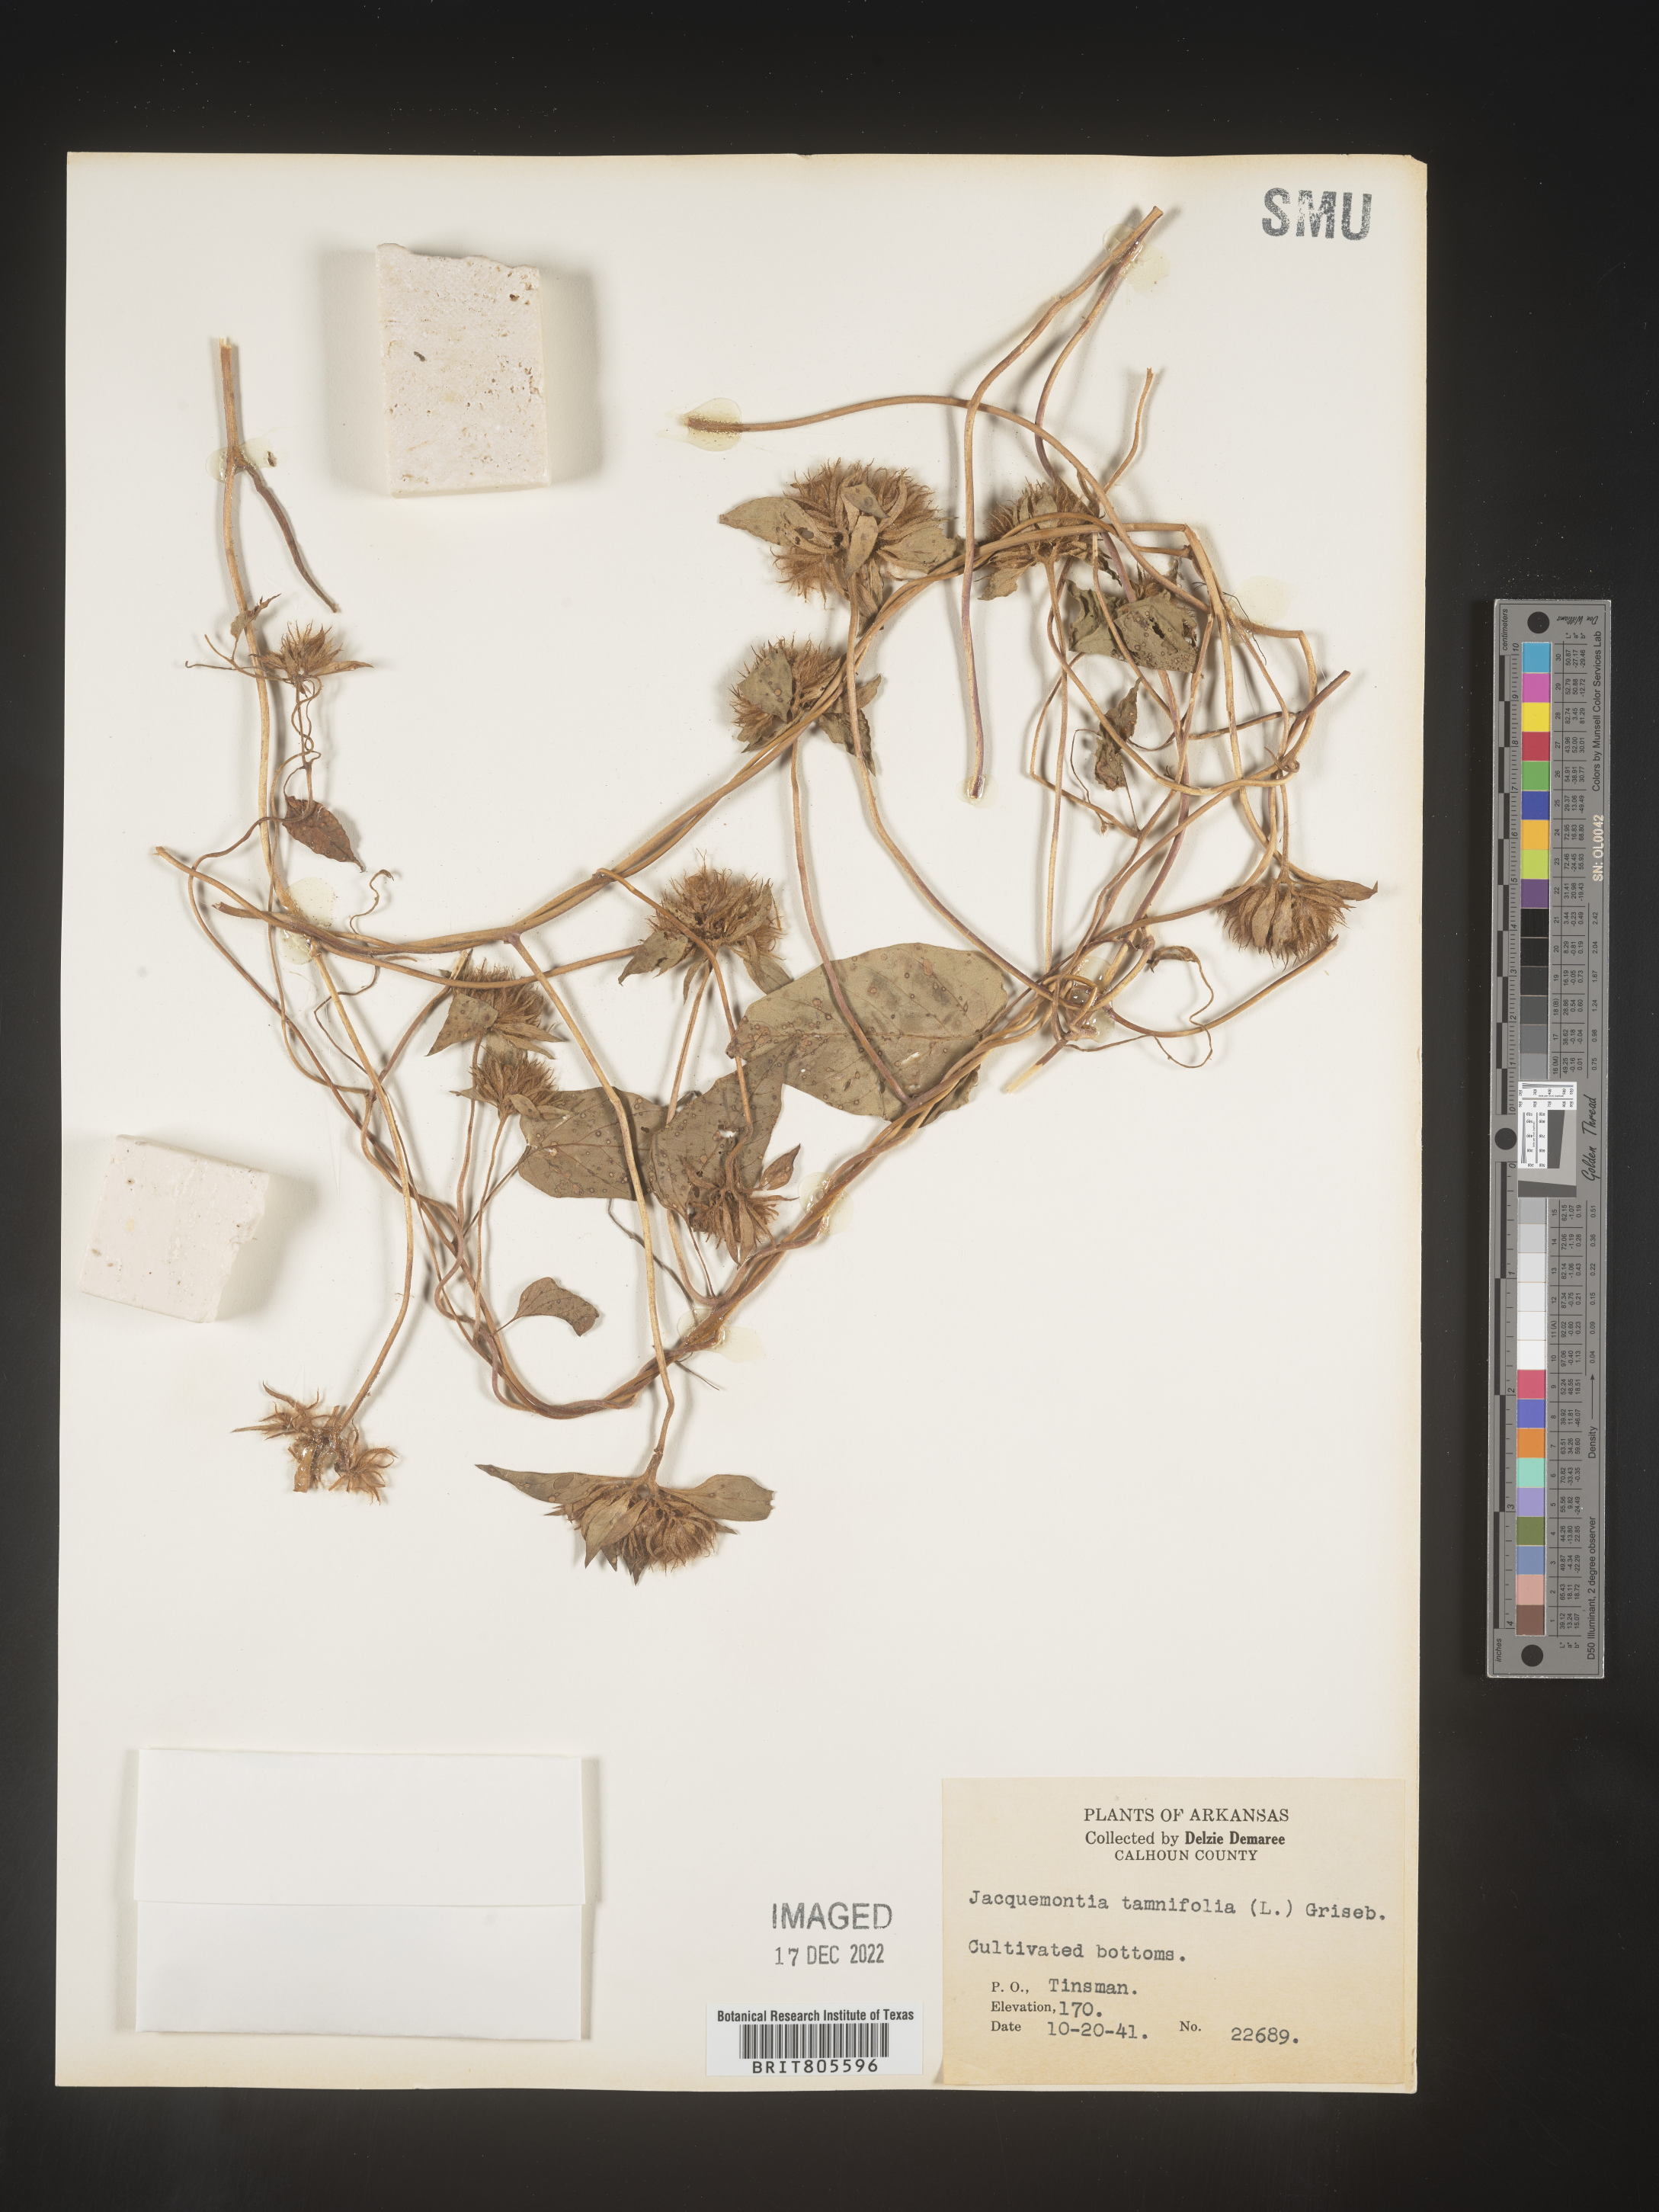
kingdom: Plantae
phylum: Tracheophyta
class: Magnoliopsida
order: Solanales
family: Convolvulaceae
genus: Jacquemontia
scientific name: Jacquemontia tamnifolia
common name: Hairy clustervine
